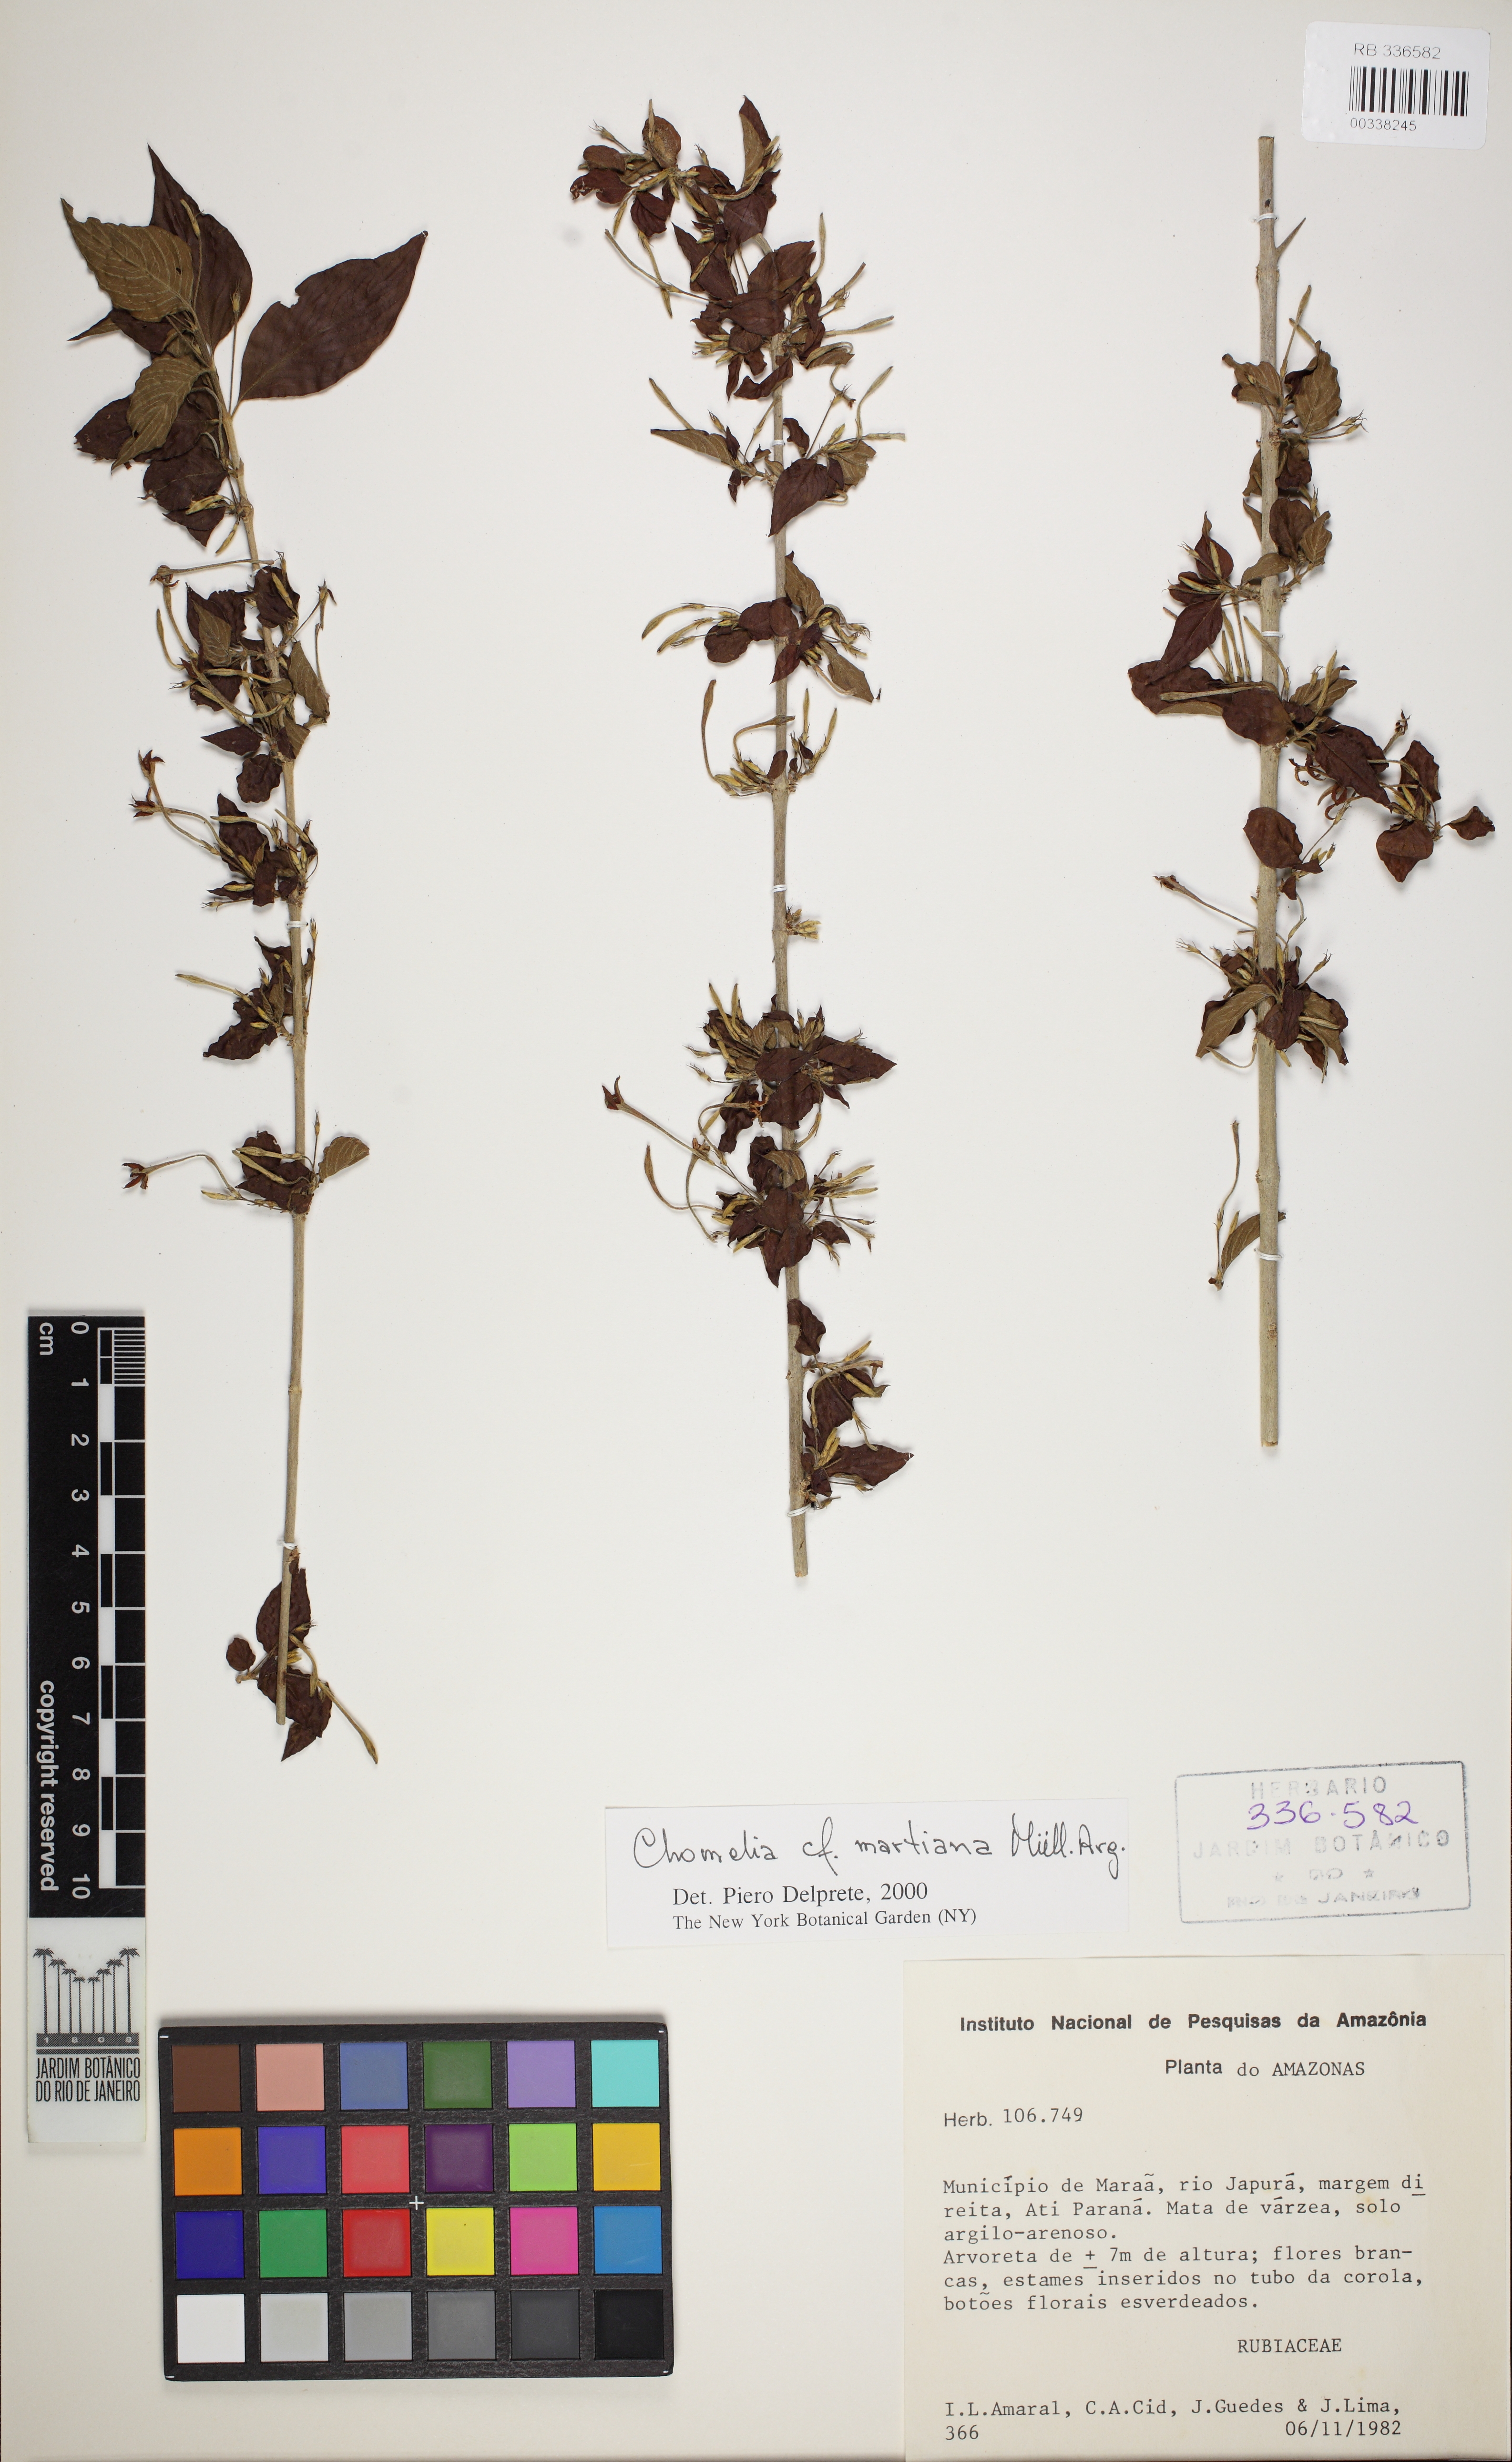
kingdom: Plantae
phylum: Tracheophyta
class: Magnoliopsida
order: Gentianales
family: Rubiaceae
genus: Chomelia
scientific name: Chomelia obtusa
